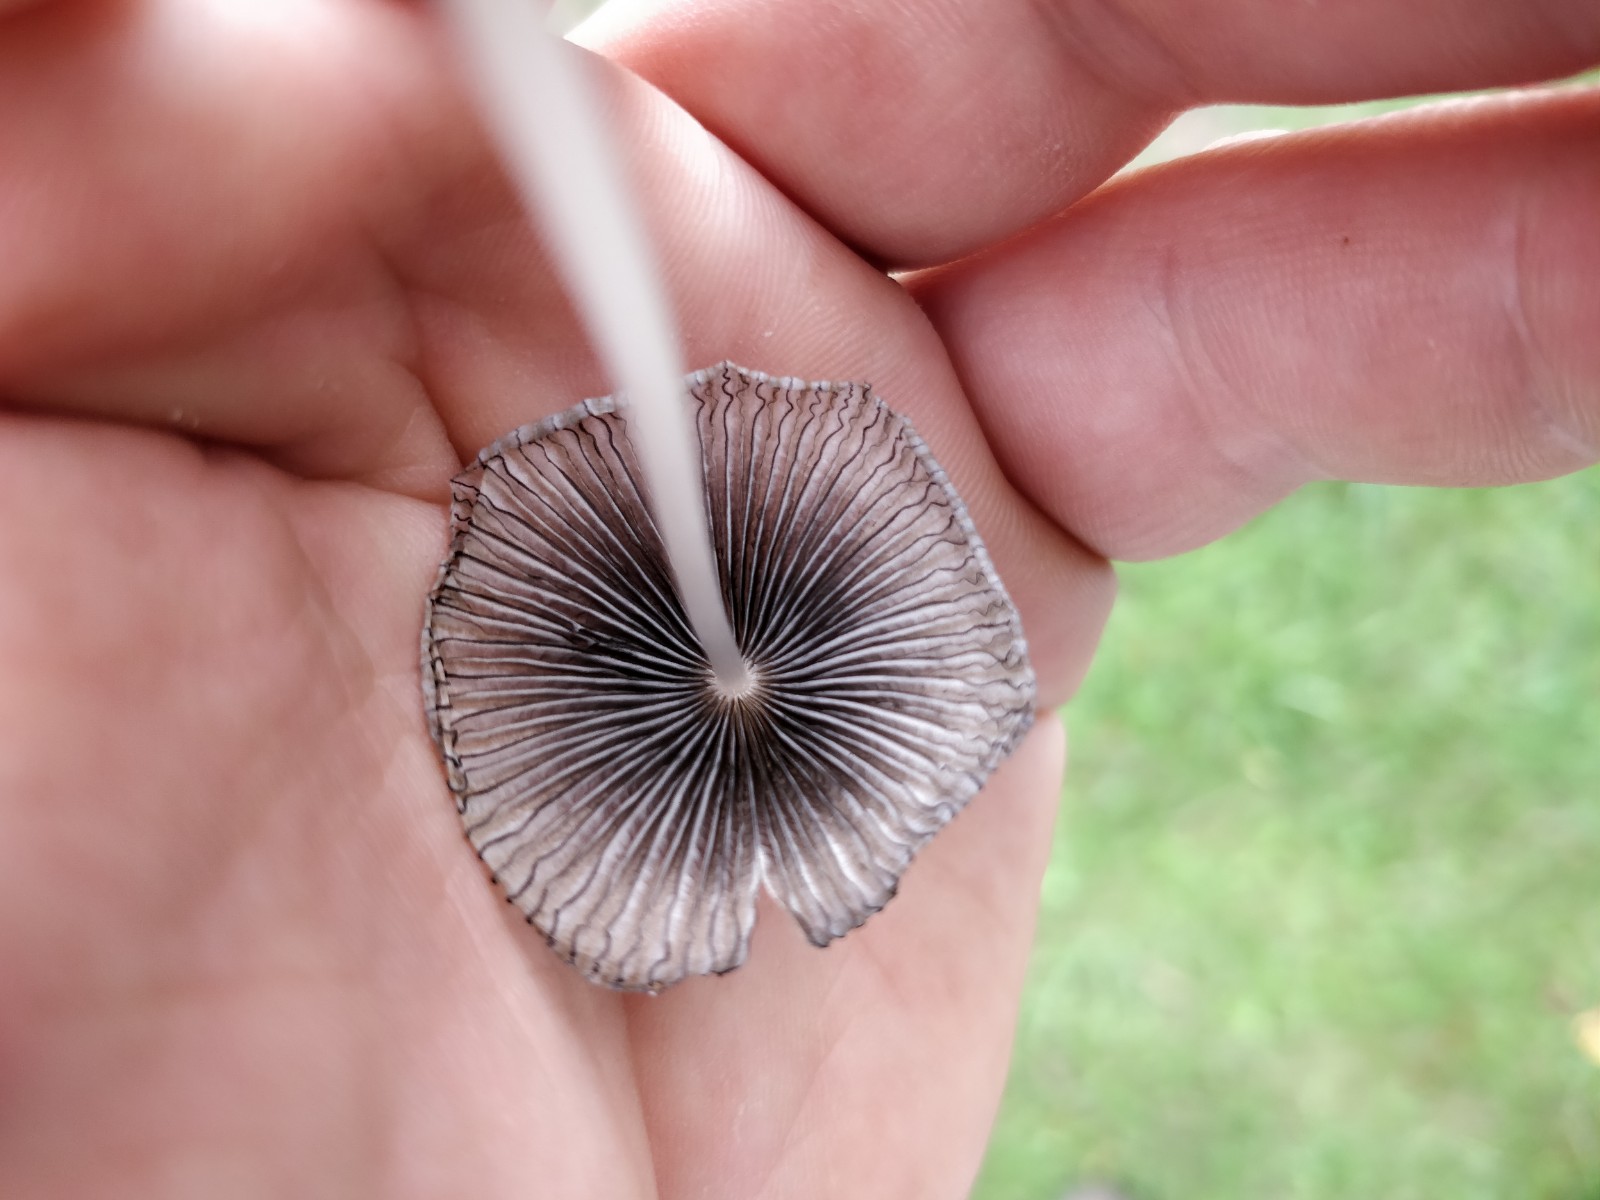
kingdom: Fungi
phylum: Basidiomycota
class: Agaricomycetes
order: Agaricales
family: Psathyrellaceae
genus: Parasola
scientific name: Parasola
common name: hjulhat
